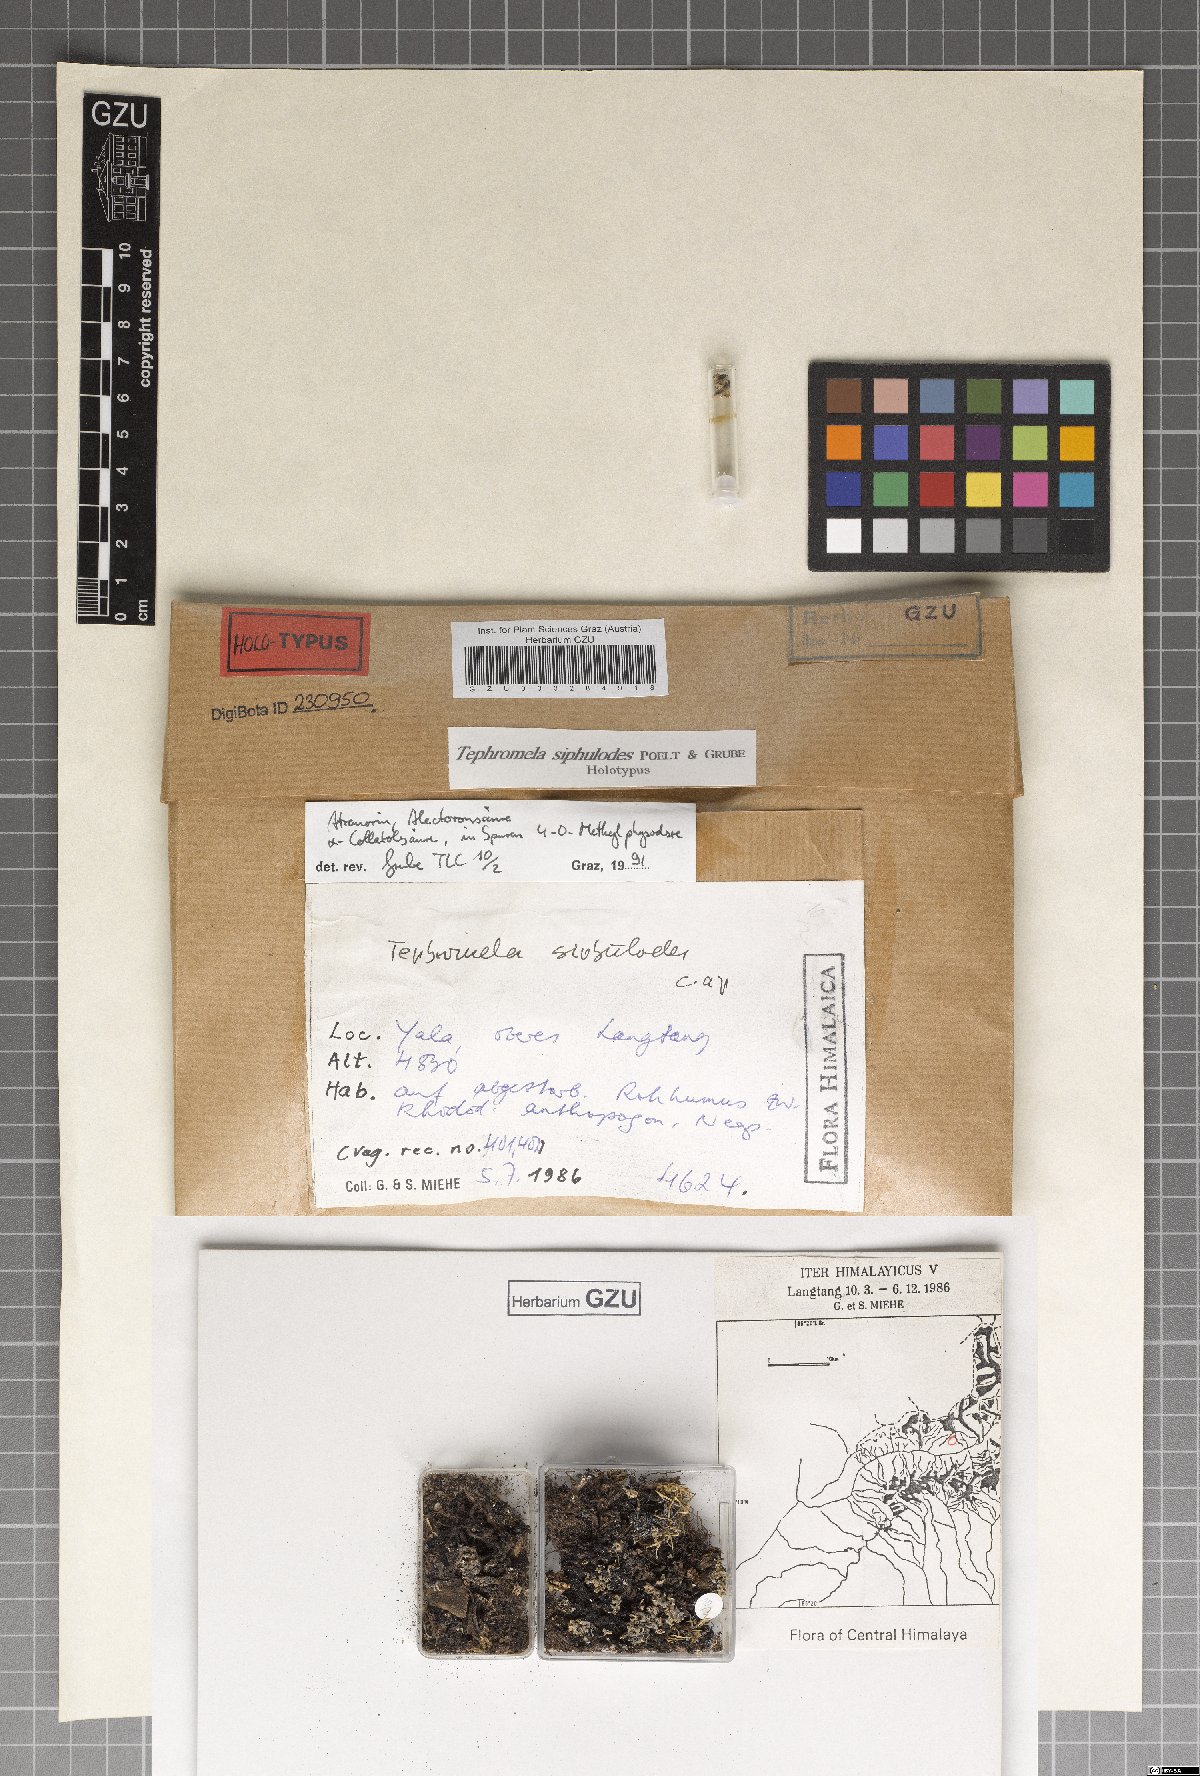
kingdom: Fungi
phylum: Ascomycota
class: Lecanoromycetes
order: Lecanorales
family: Tephromelataceae
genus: Tephromela
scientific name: Tephromela siphulodes
